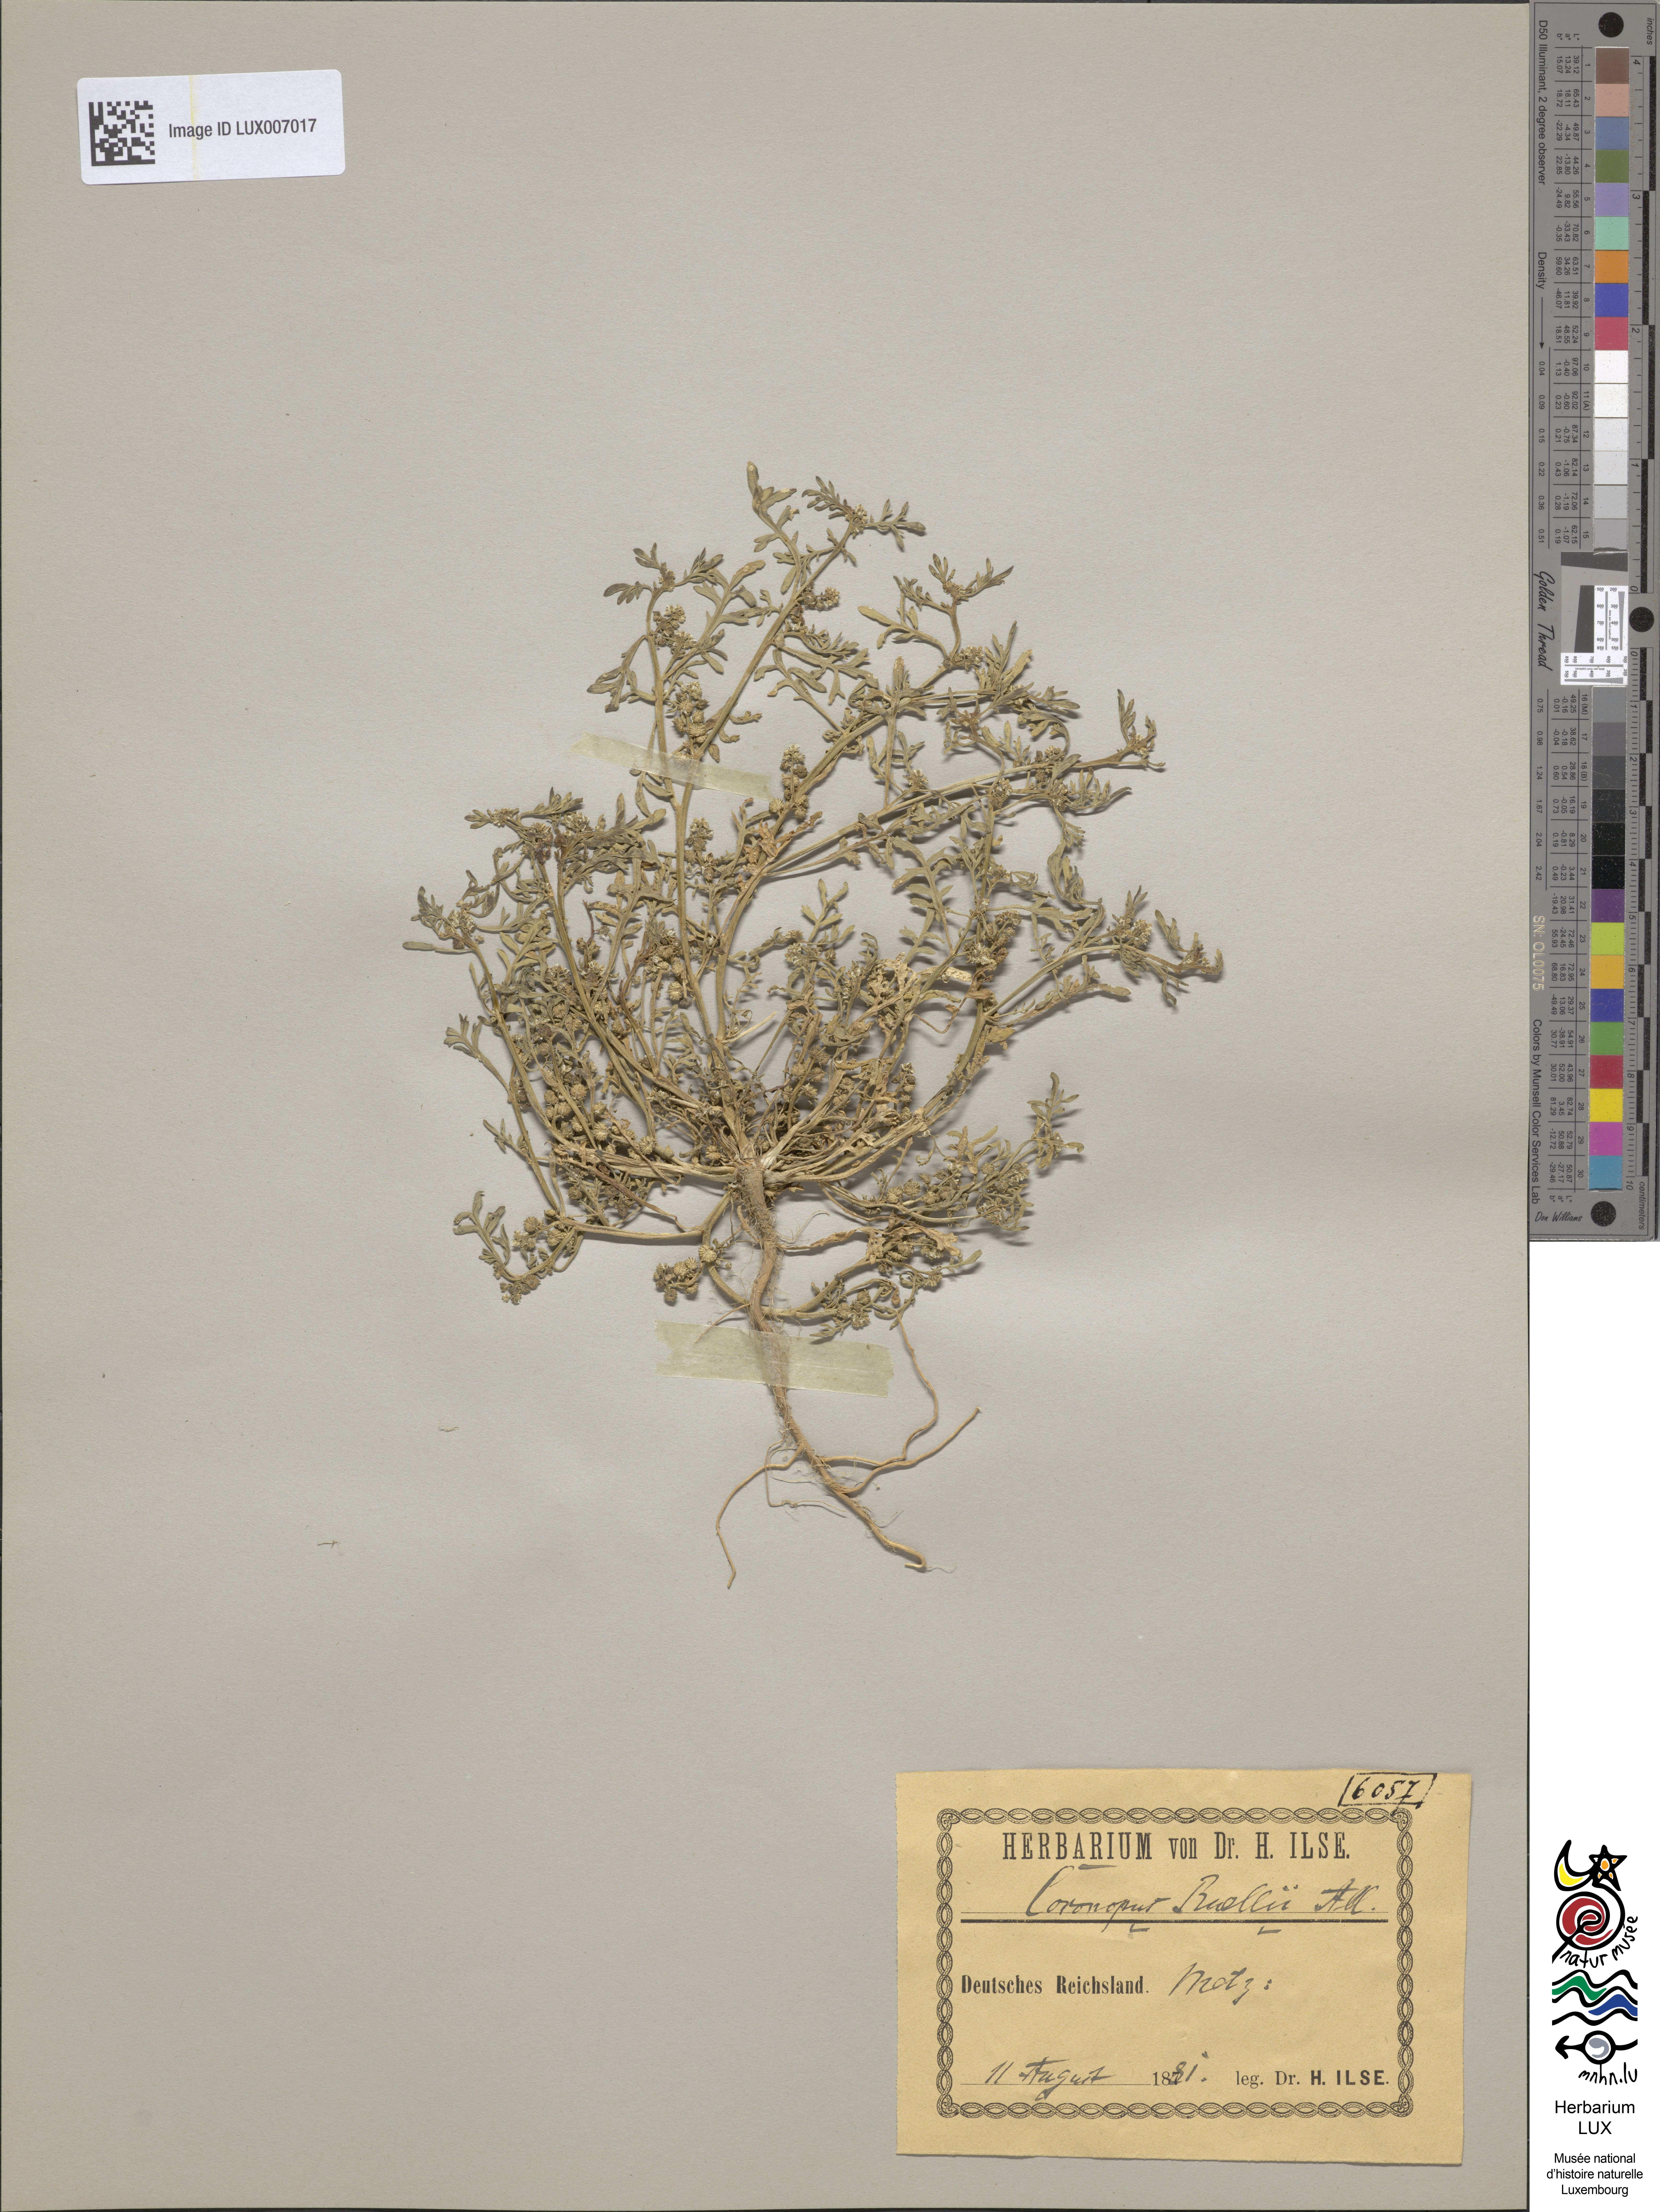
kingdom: Plantae
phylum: Tracheophyta
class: Magnoliopsida
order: Brassicales
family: Brassicaceae
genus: Lepidium
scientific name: Lepidium coronopus
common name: Greater swinecress
